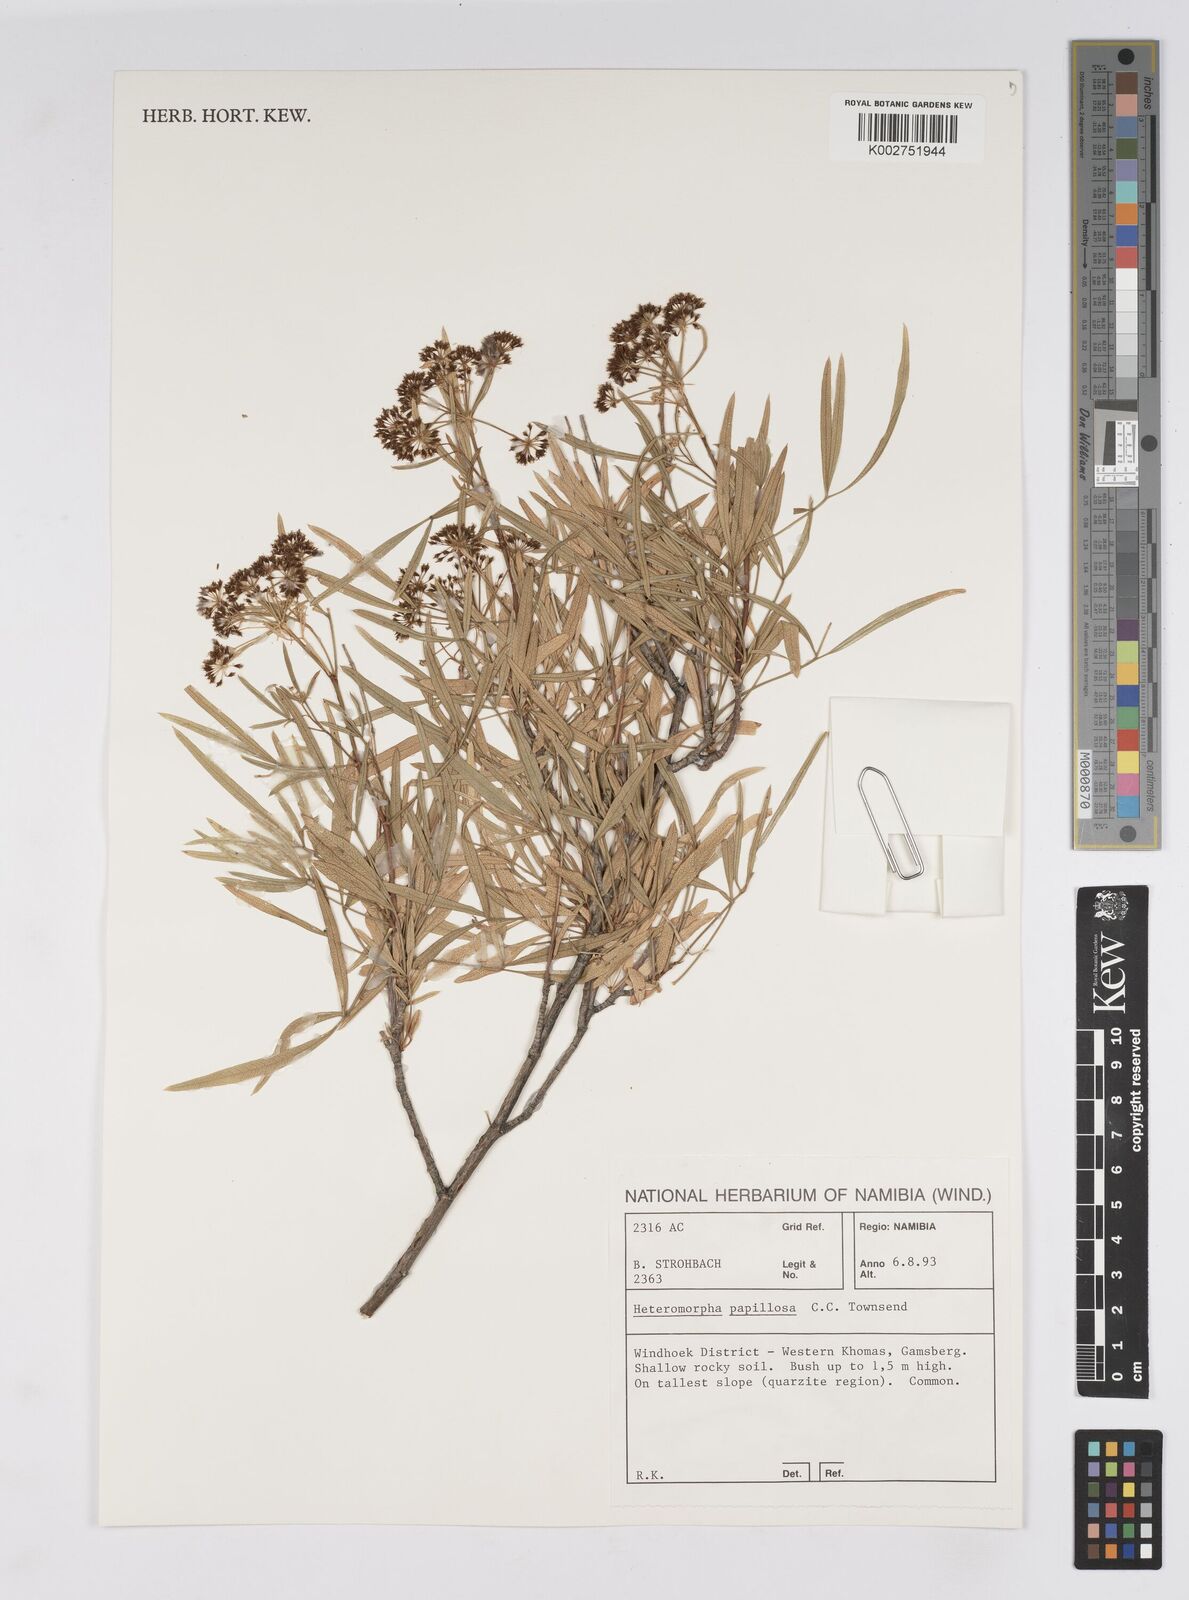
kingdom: Plantae
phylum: Tracheophyta
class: Magnoliopsida
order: Apiales
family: Apiaceae
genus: Heteromorpha
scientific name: Heteromorpha papillosa
